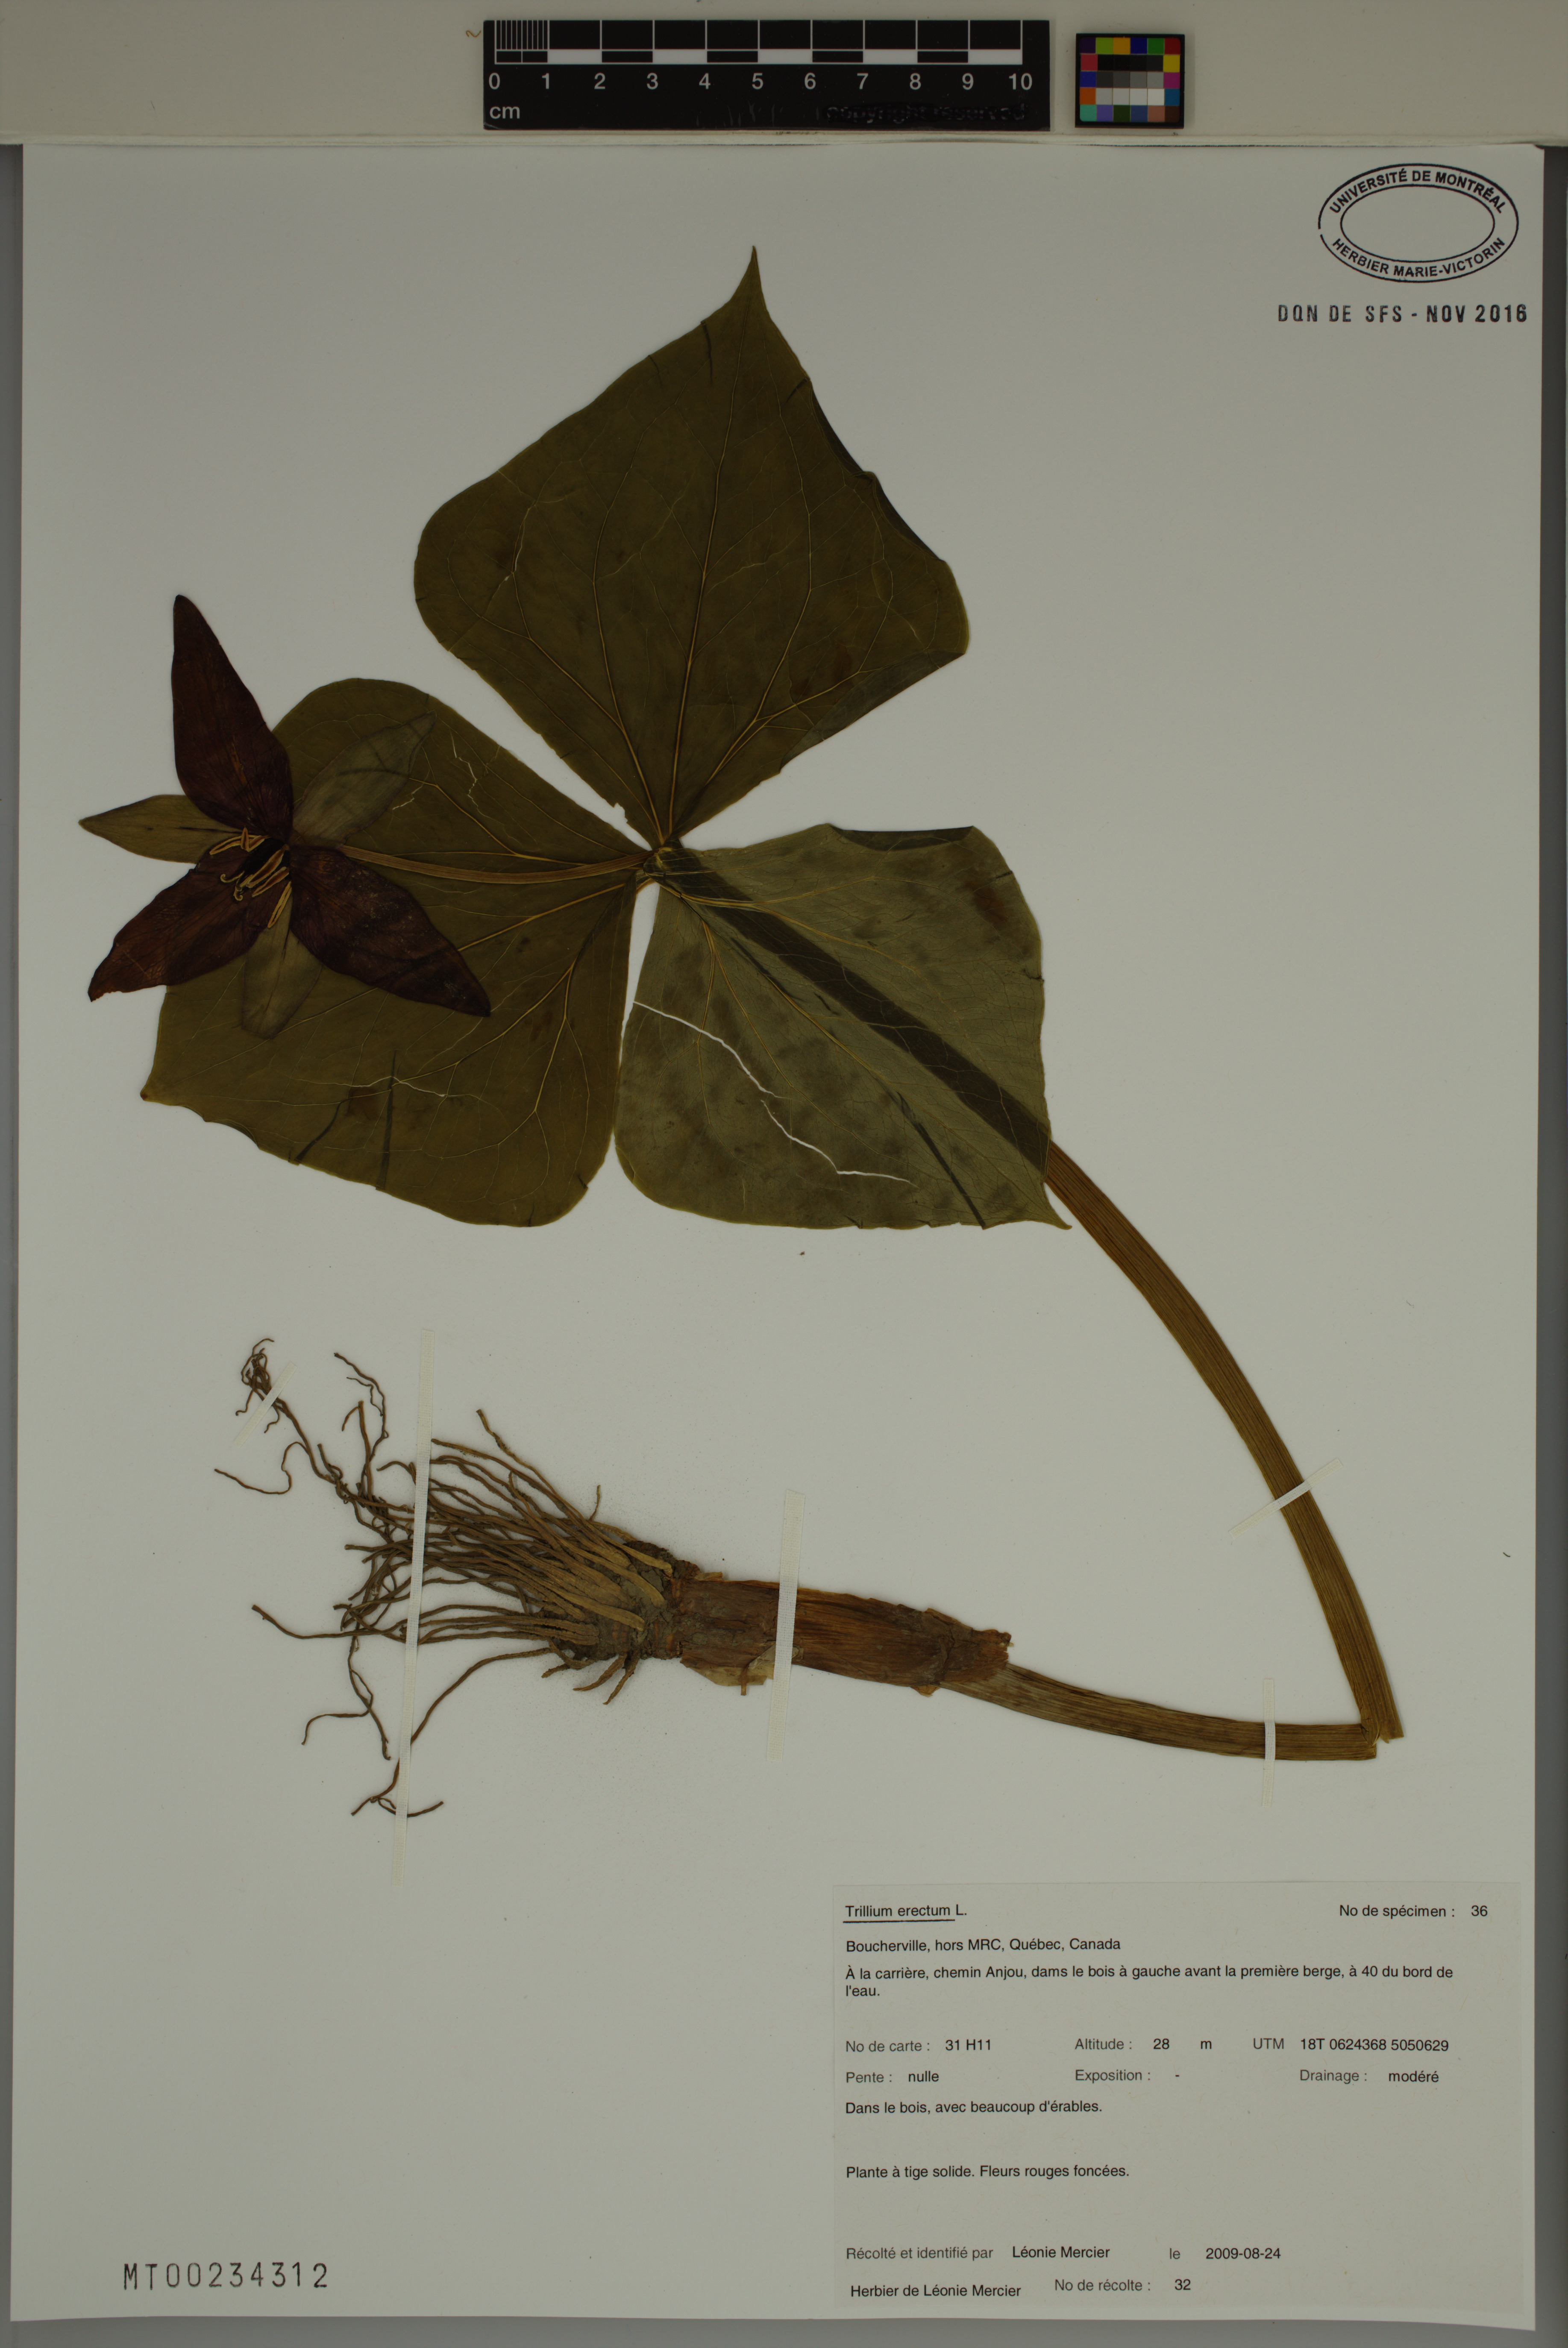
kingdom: Plantae
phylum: Tracheophyta
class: Liliopsida
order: Liliales
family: Melanthiaceae
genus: Trillium
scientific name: Trillium erectum
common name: Purple trillium
